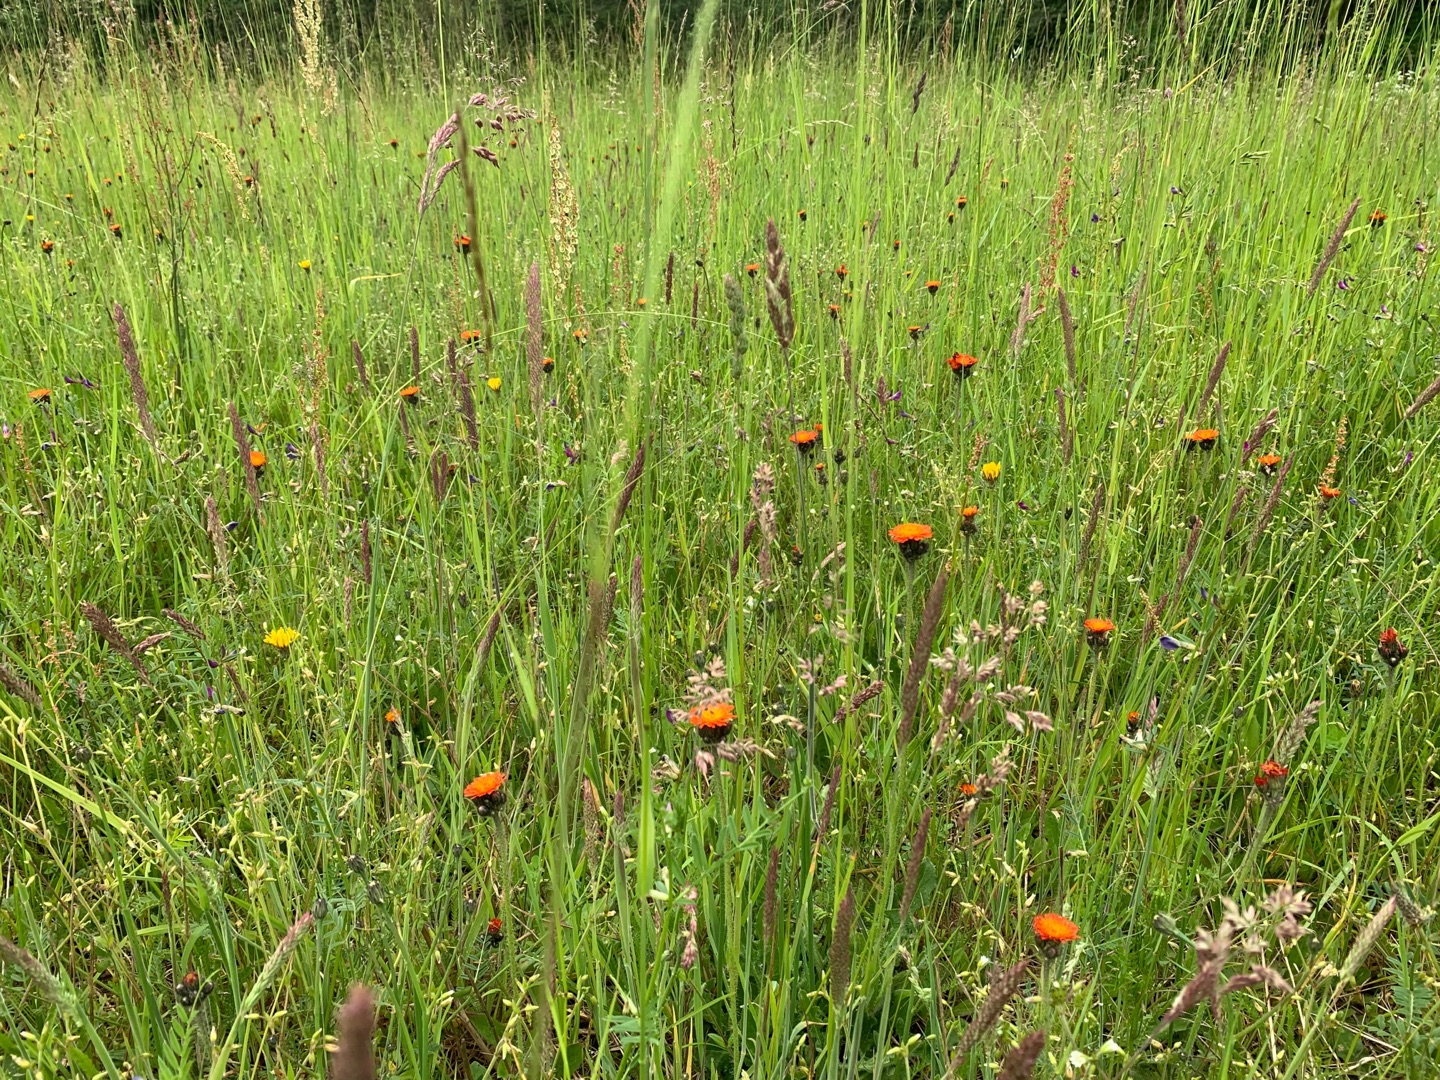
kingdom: Plantae
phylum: Tracheophyta
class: Magnoliopsida
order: Asterales
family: Asteraceae
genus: Pilosella
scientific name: Pilosella aurantiaca
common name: Pomerans-høgeurt
